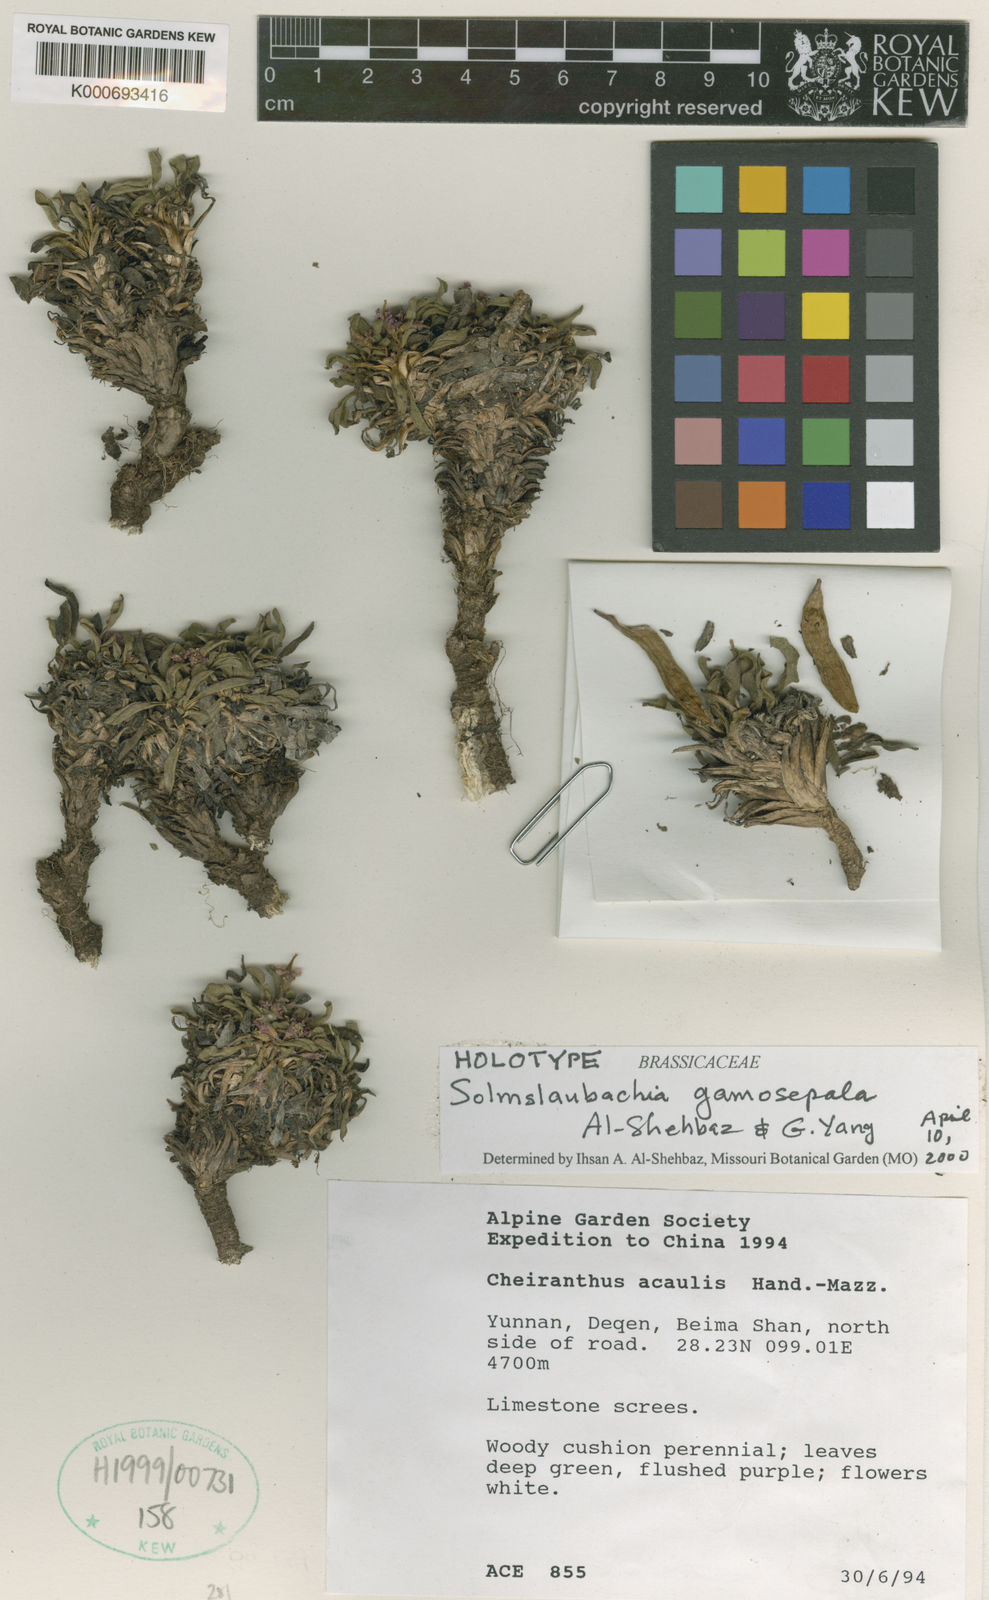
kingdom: Plantae
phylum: Tracheophyta
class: Magnoliopsida
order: Brassicales
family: Brassicaceae
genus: Solms-laubachia
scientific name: Solms-laubachia eurycarpa
